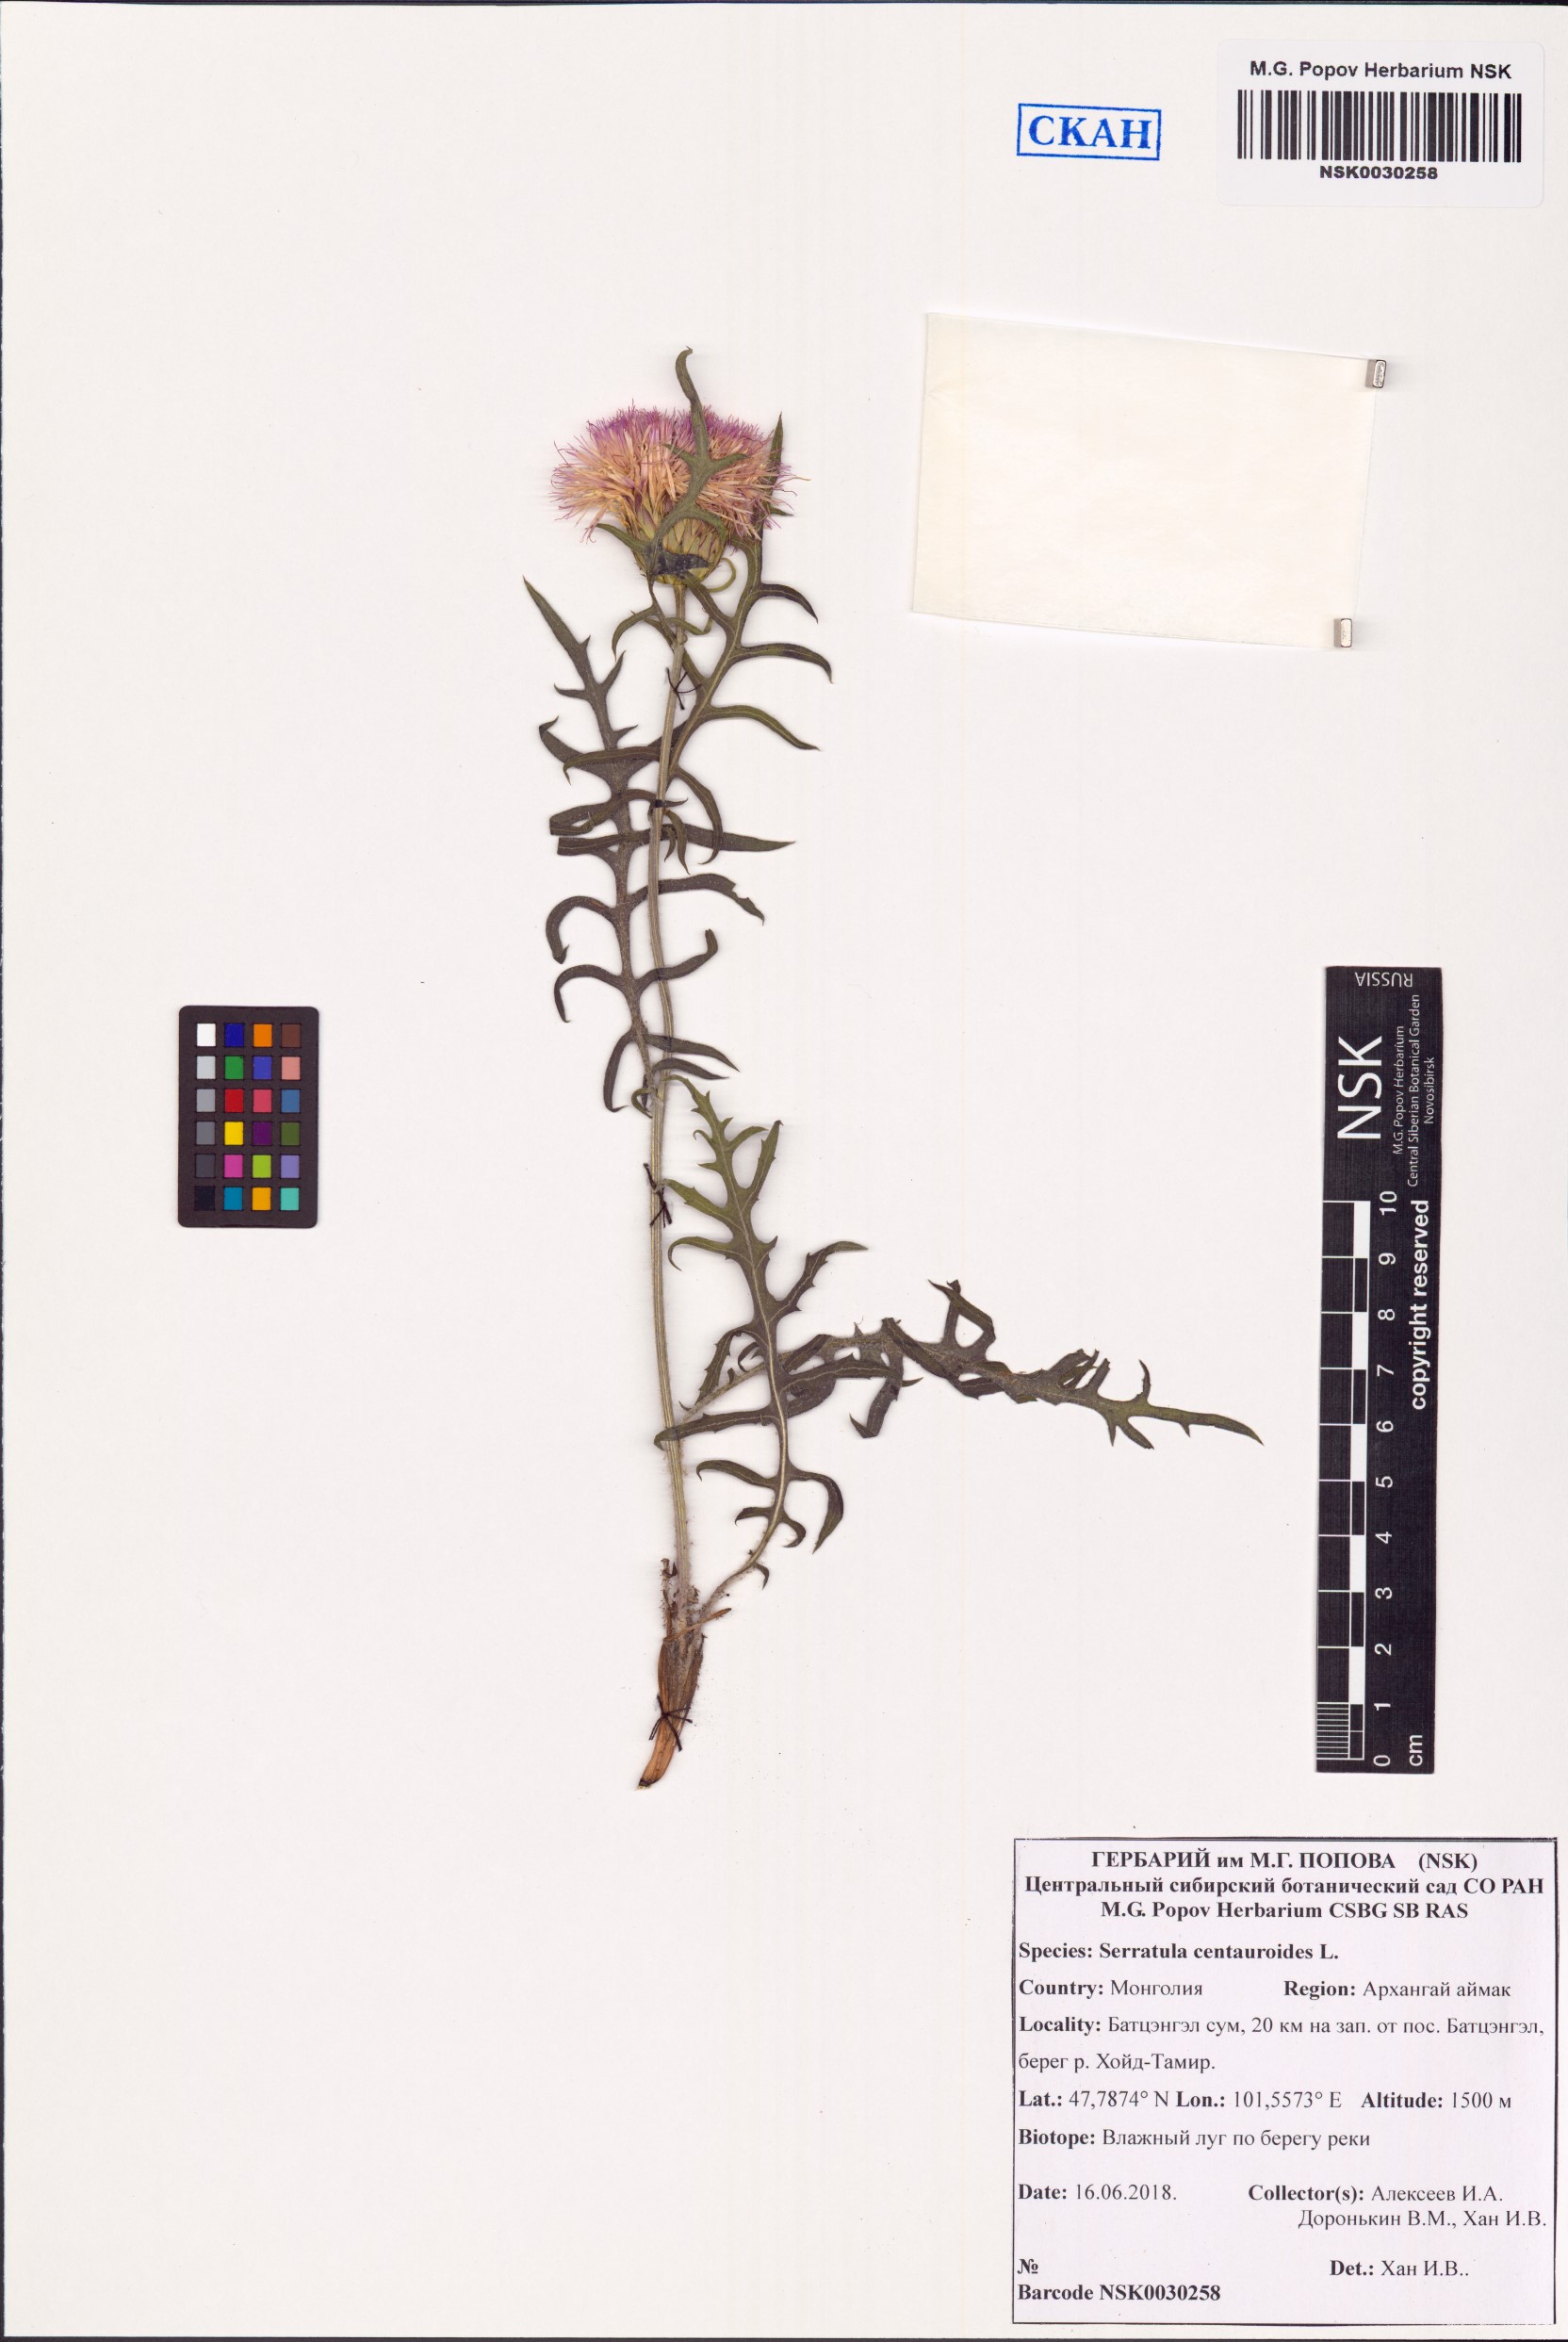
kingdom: Plantae
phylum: Tracheophyta
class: Magnoliopsida
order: Asterales
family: Asteraceae
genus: Klasea
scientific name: Klasea centauroides
